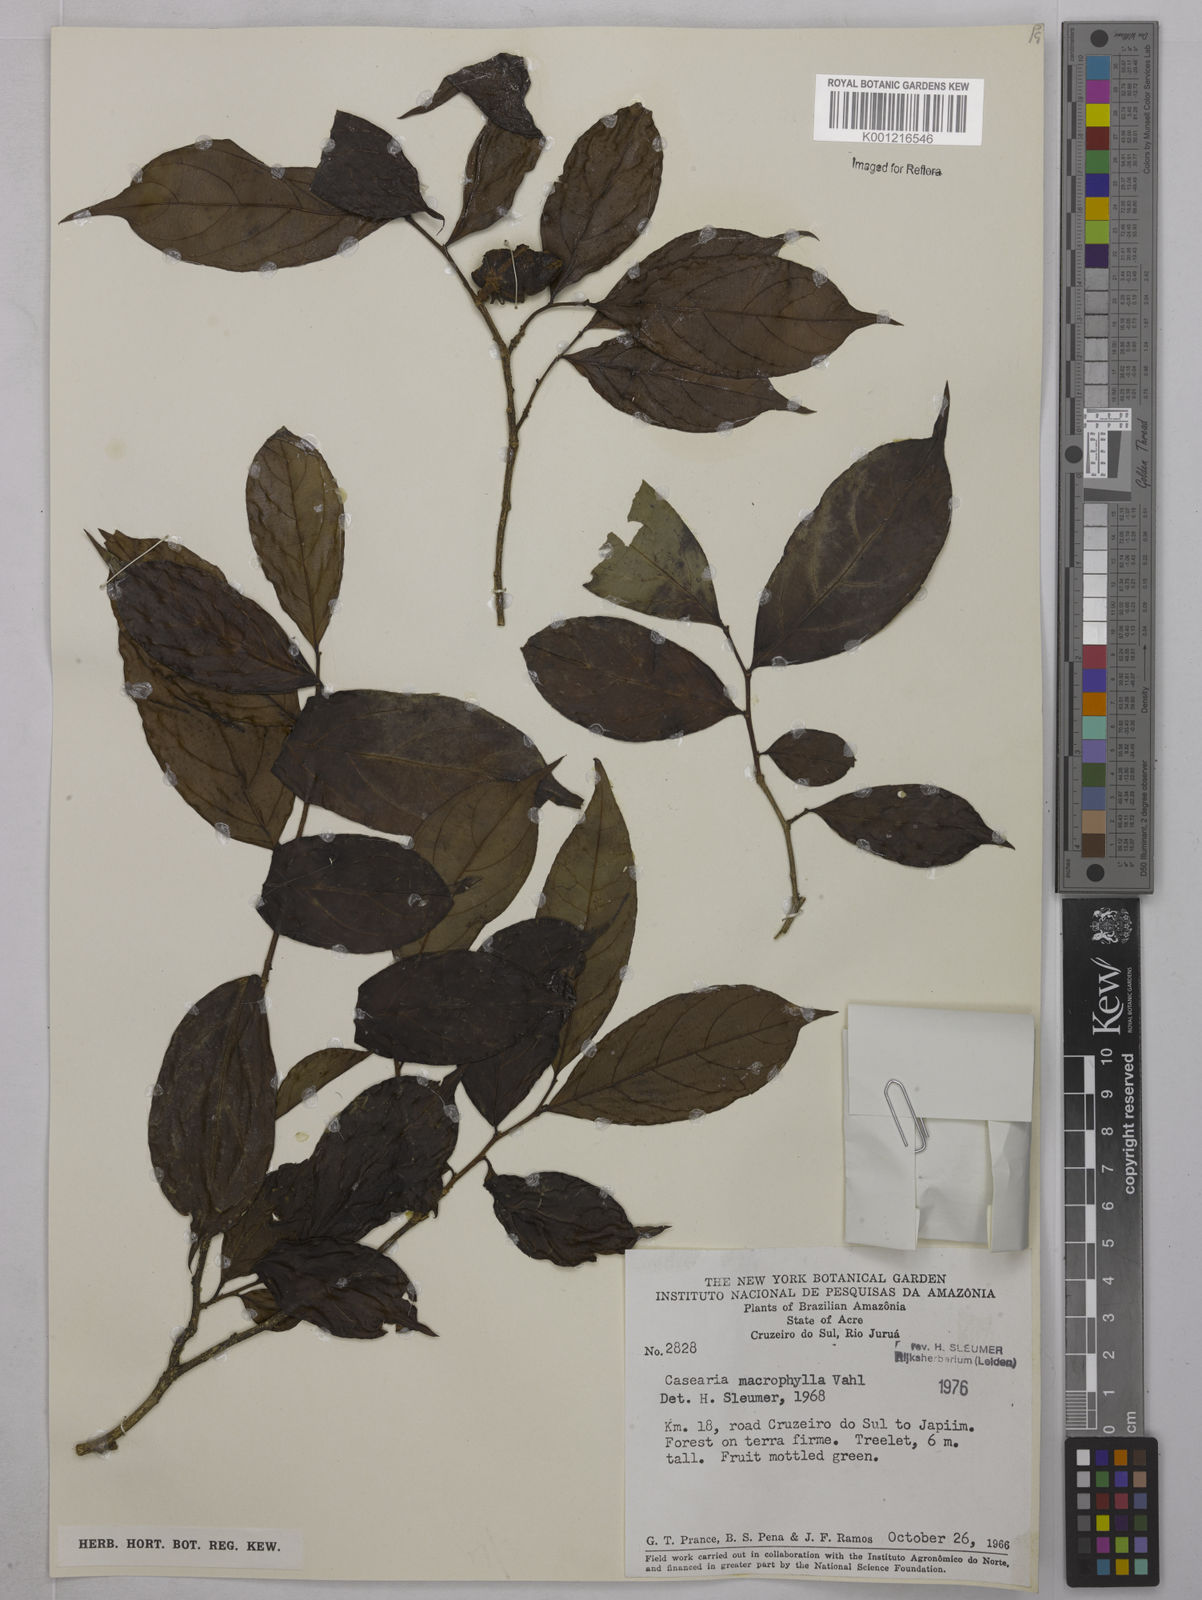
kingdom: Plantae
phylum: Tracheophyta
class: Magnoliopsida
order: Malpighiales
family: Salicaceae
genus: Casearia
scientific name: Casearia pitumba
